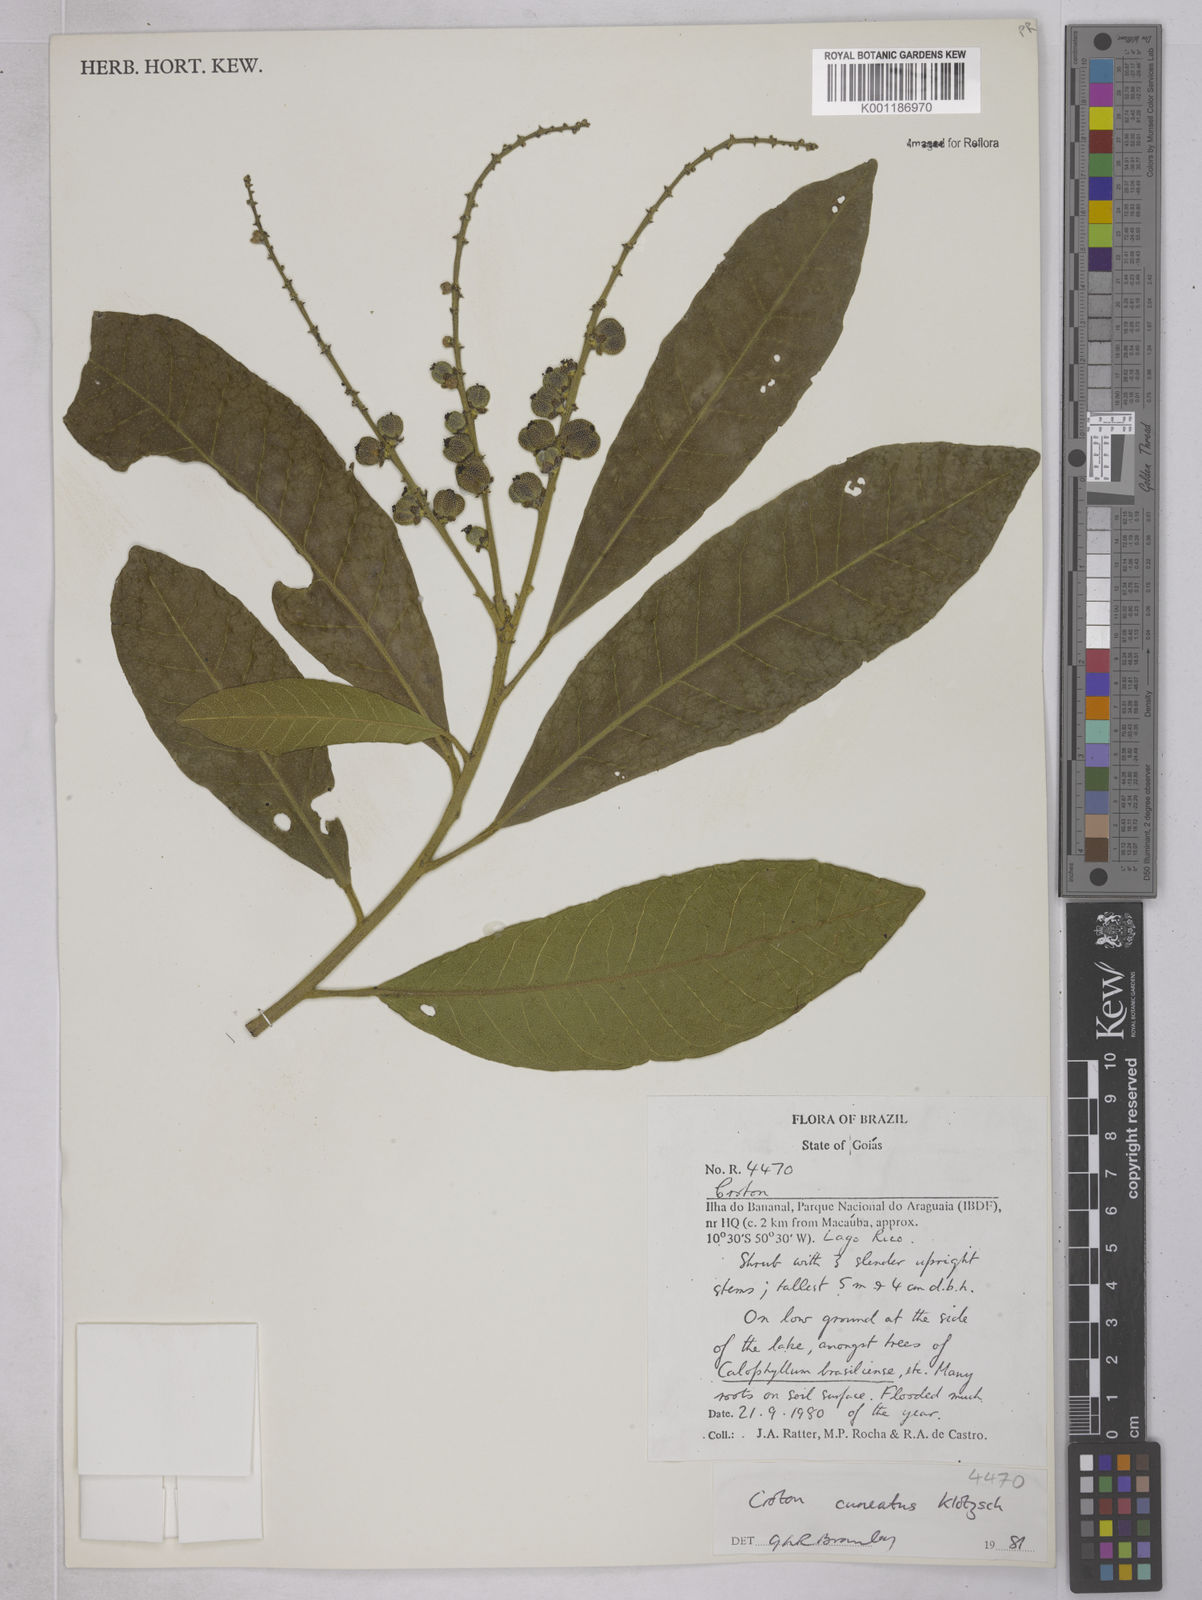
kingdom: Plantae
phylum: Tracheophyta
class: Magnoliopsida
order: Malpighiales
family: Euphorbiaceae
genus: Croton
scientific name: Croton
